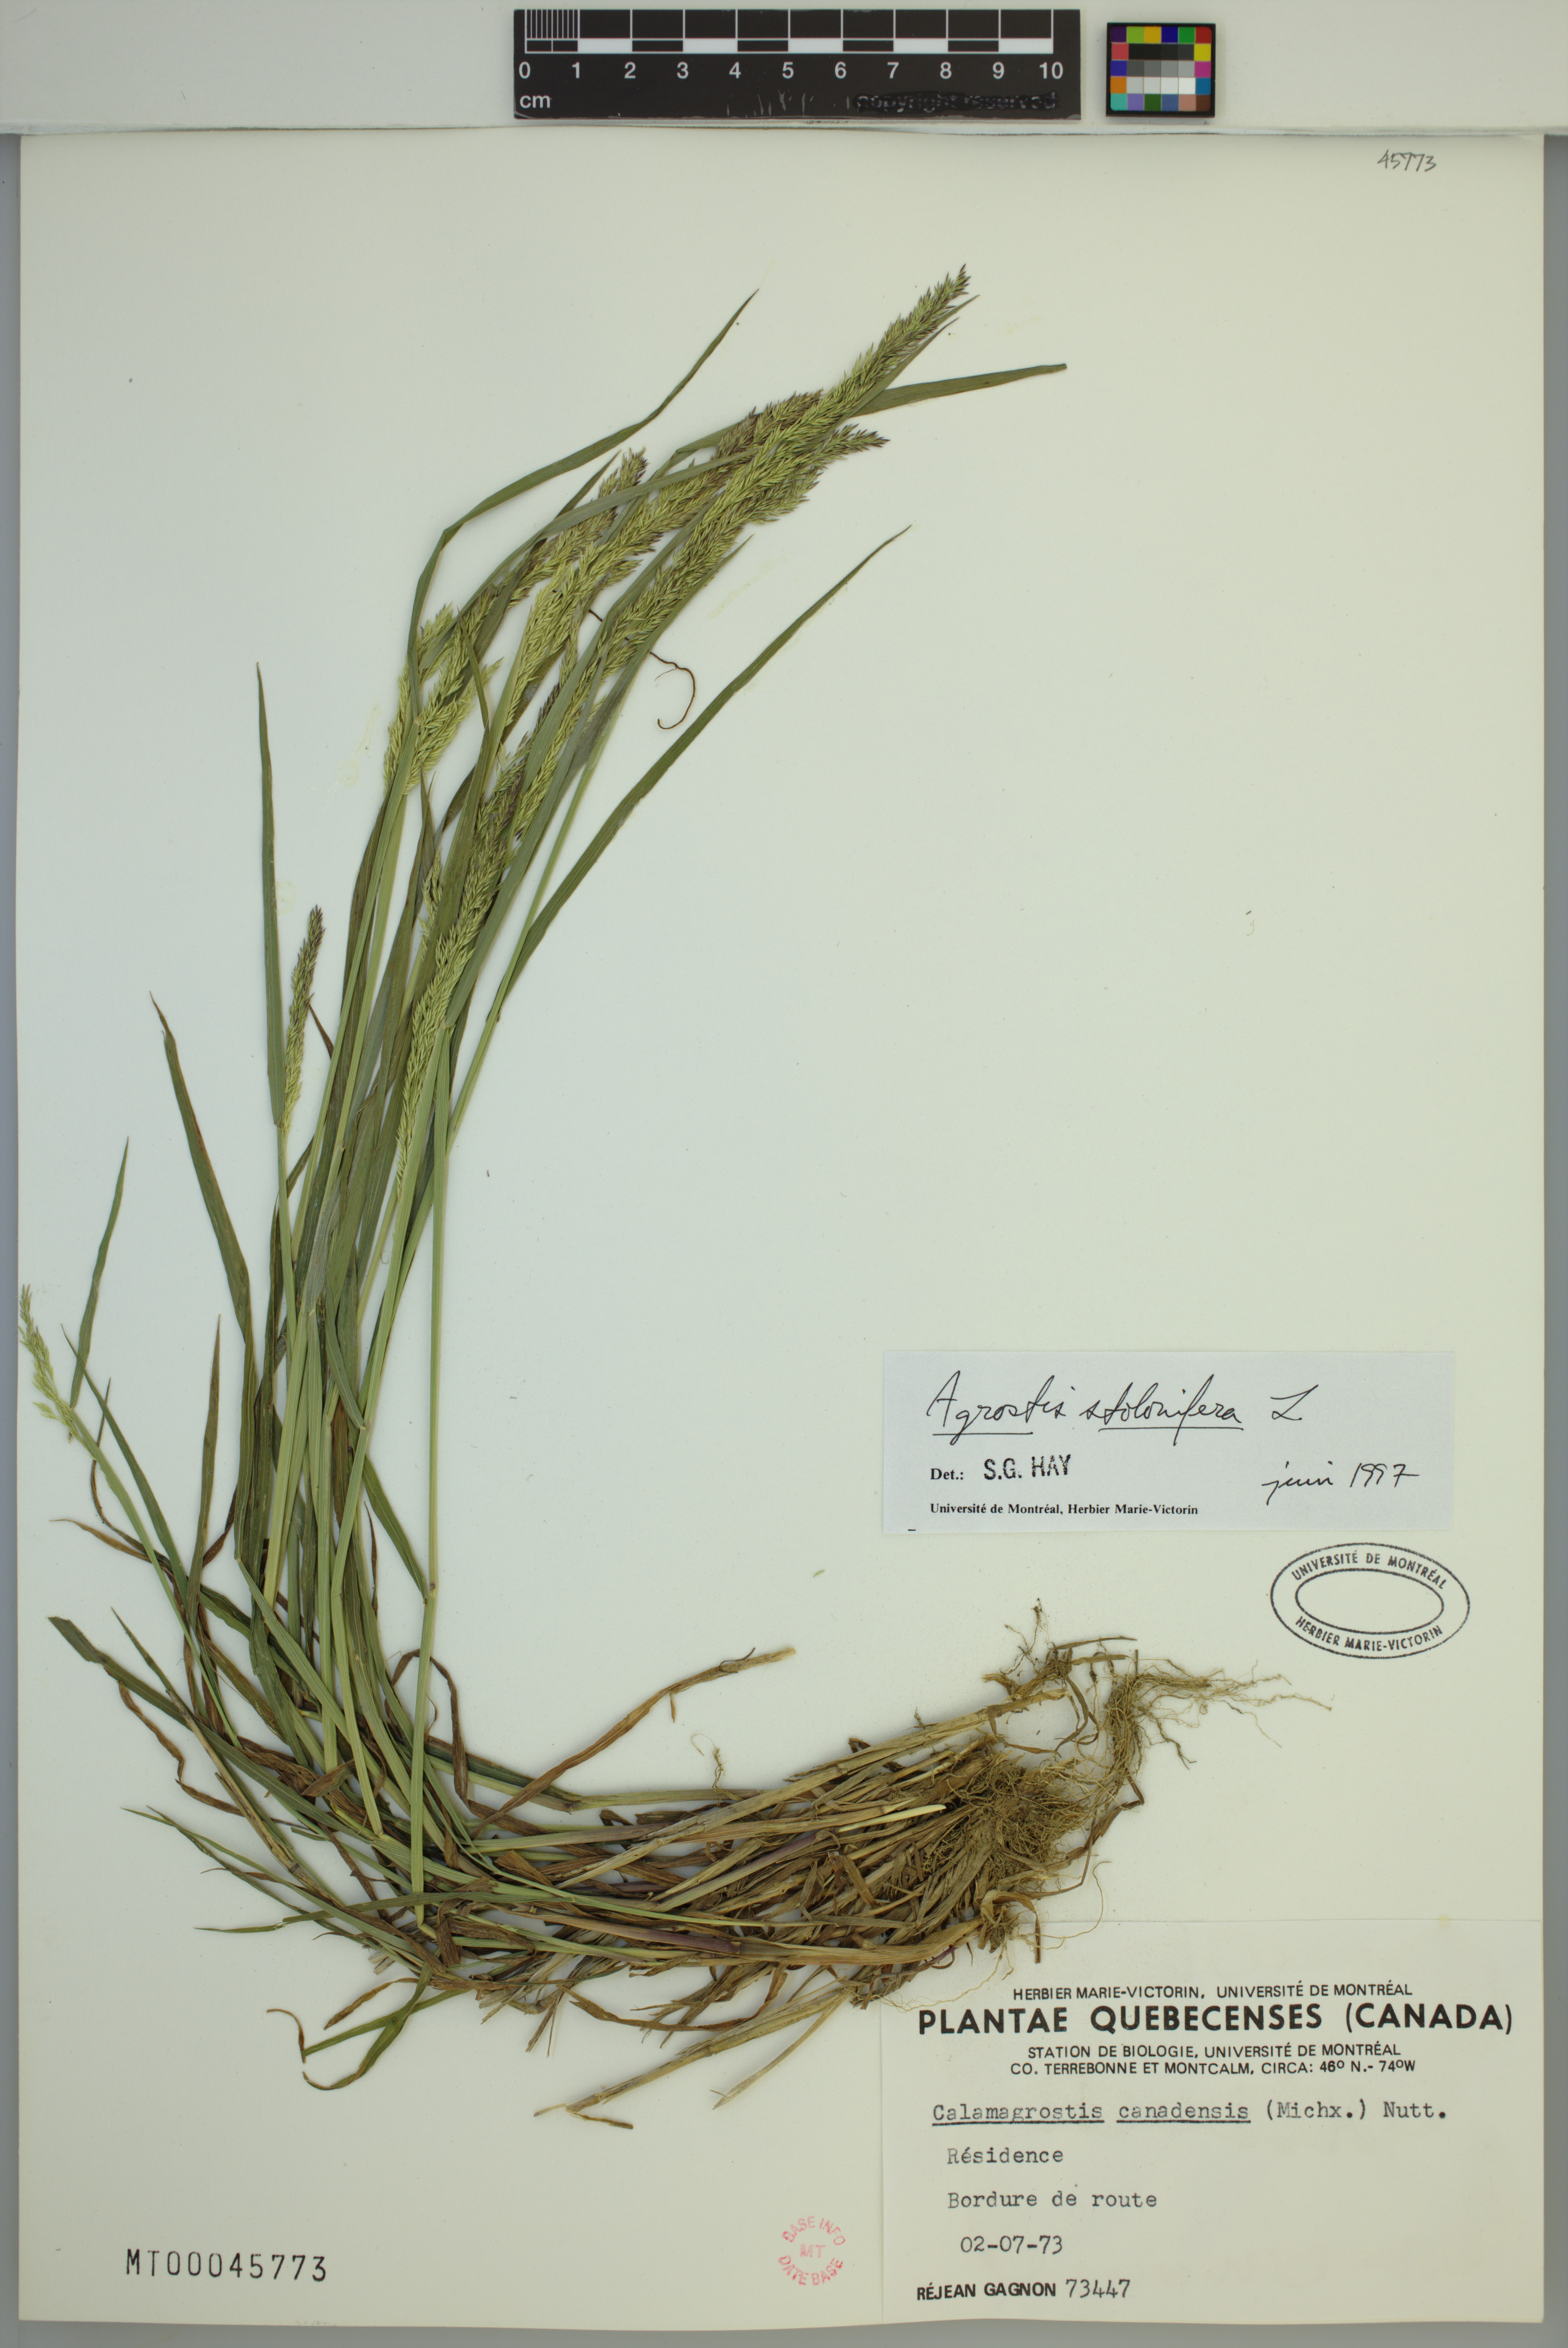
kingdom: Plantae
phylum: Tracheophyta
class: Liliopsida
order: Poales
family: Poaceae
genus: Agrostis
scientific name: Agrostis stolonifera
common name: Creeping bentgrass
